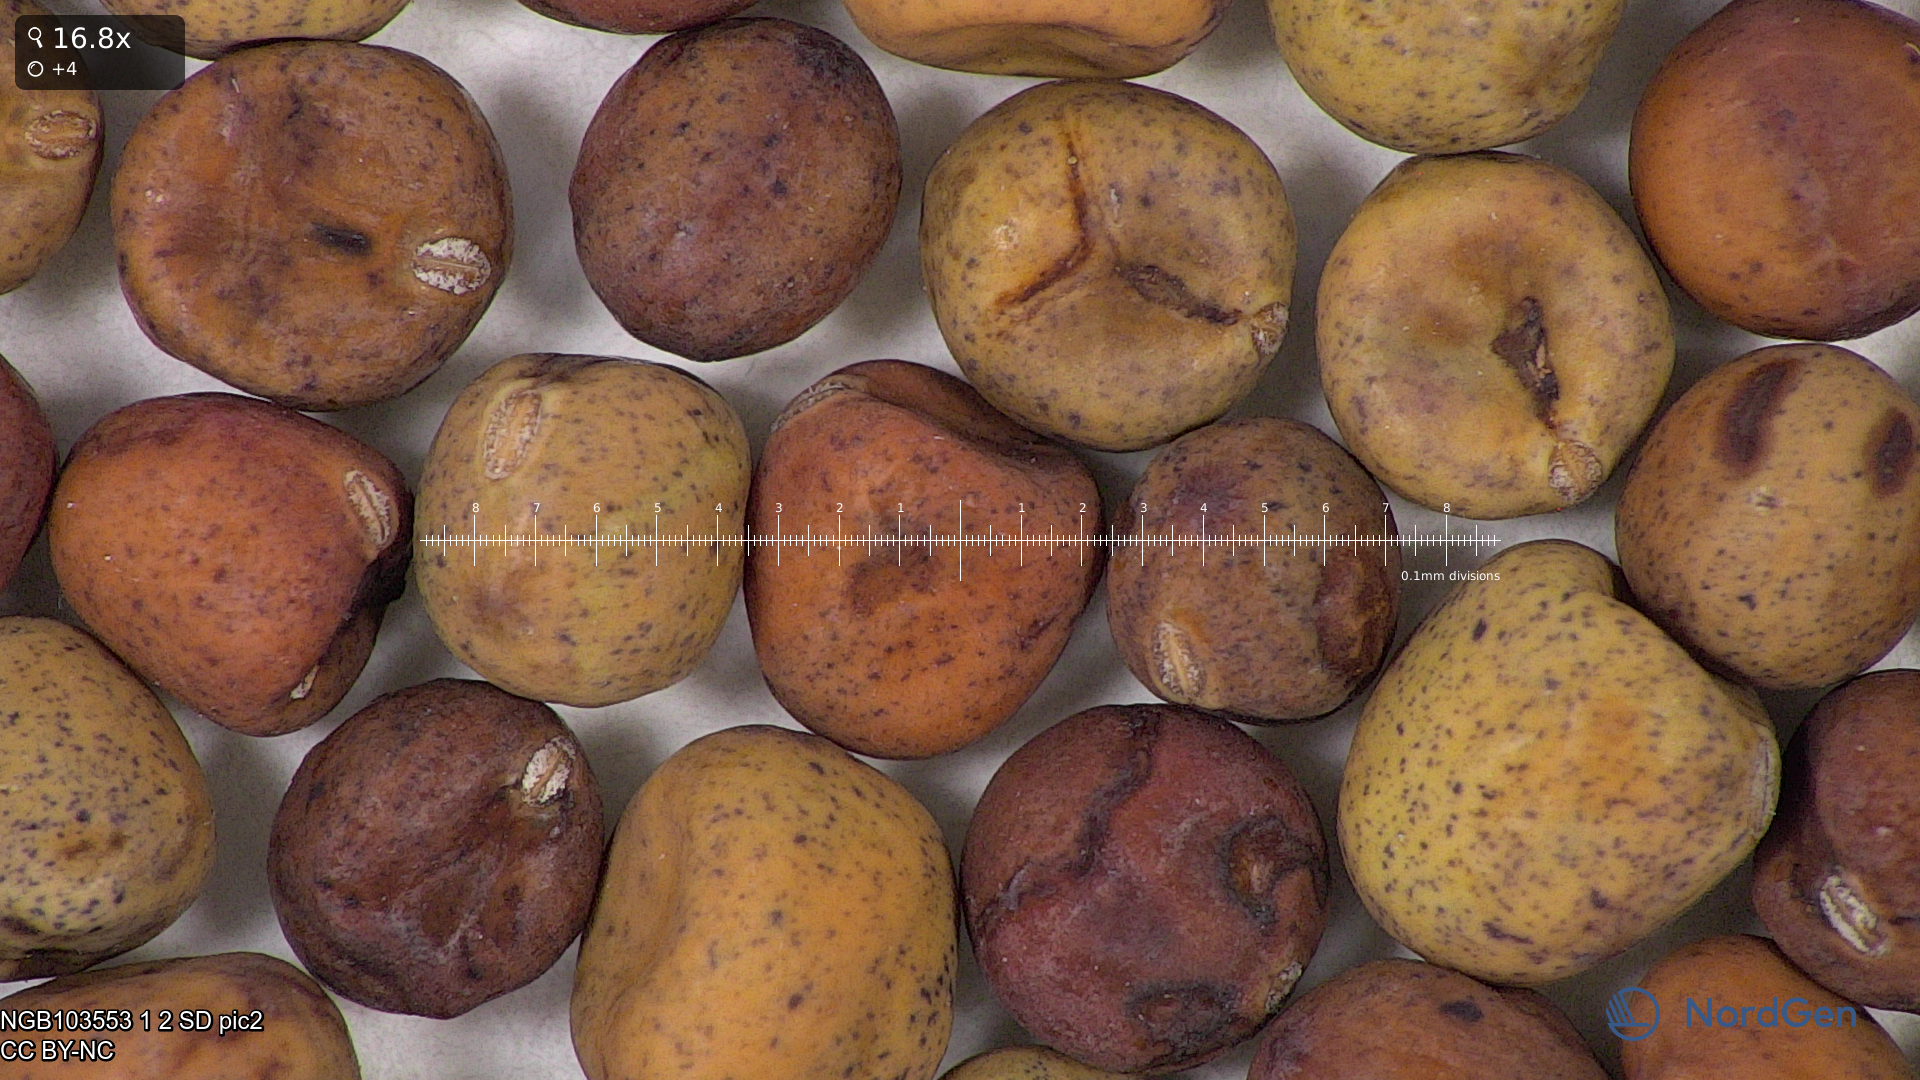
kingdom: Plantae
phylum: Tracheophyta
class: Magnoliopsida
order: Fabales
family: Fabaceae
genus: Lathyrus
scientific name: Lathyrus oleraceus
